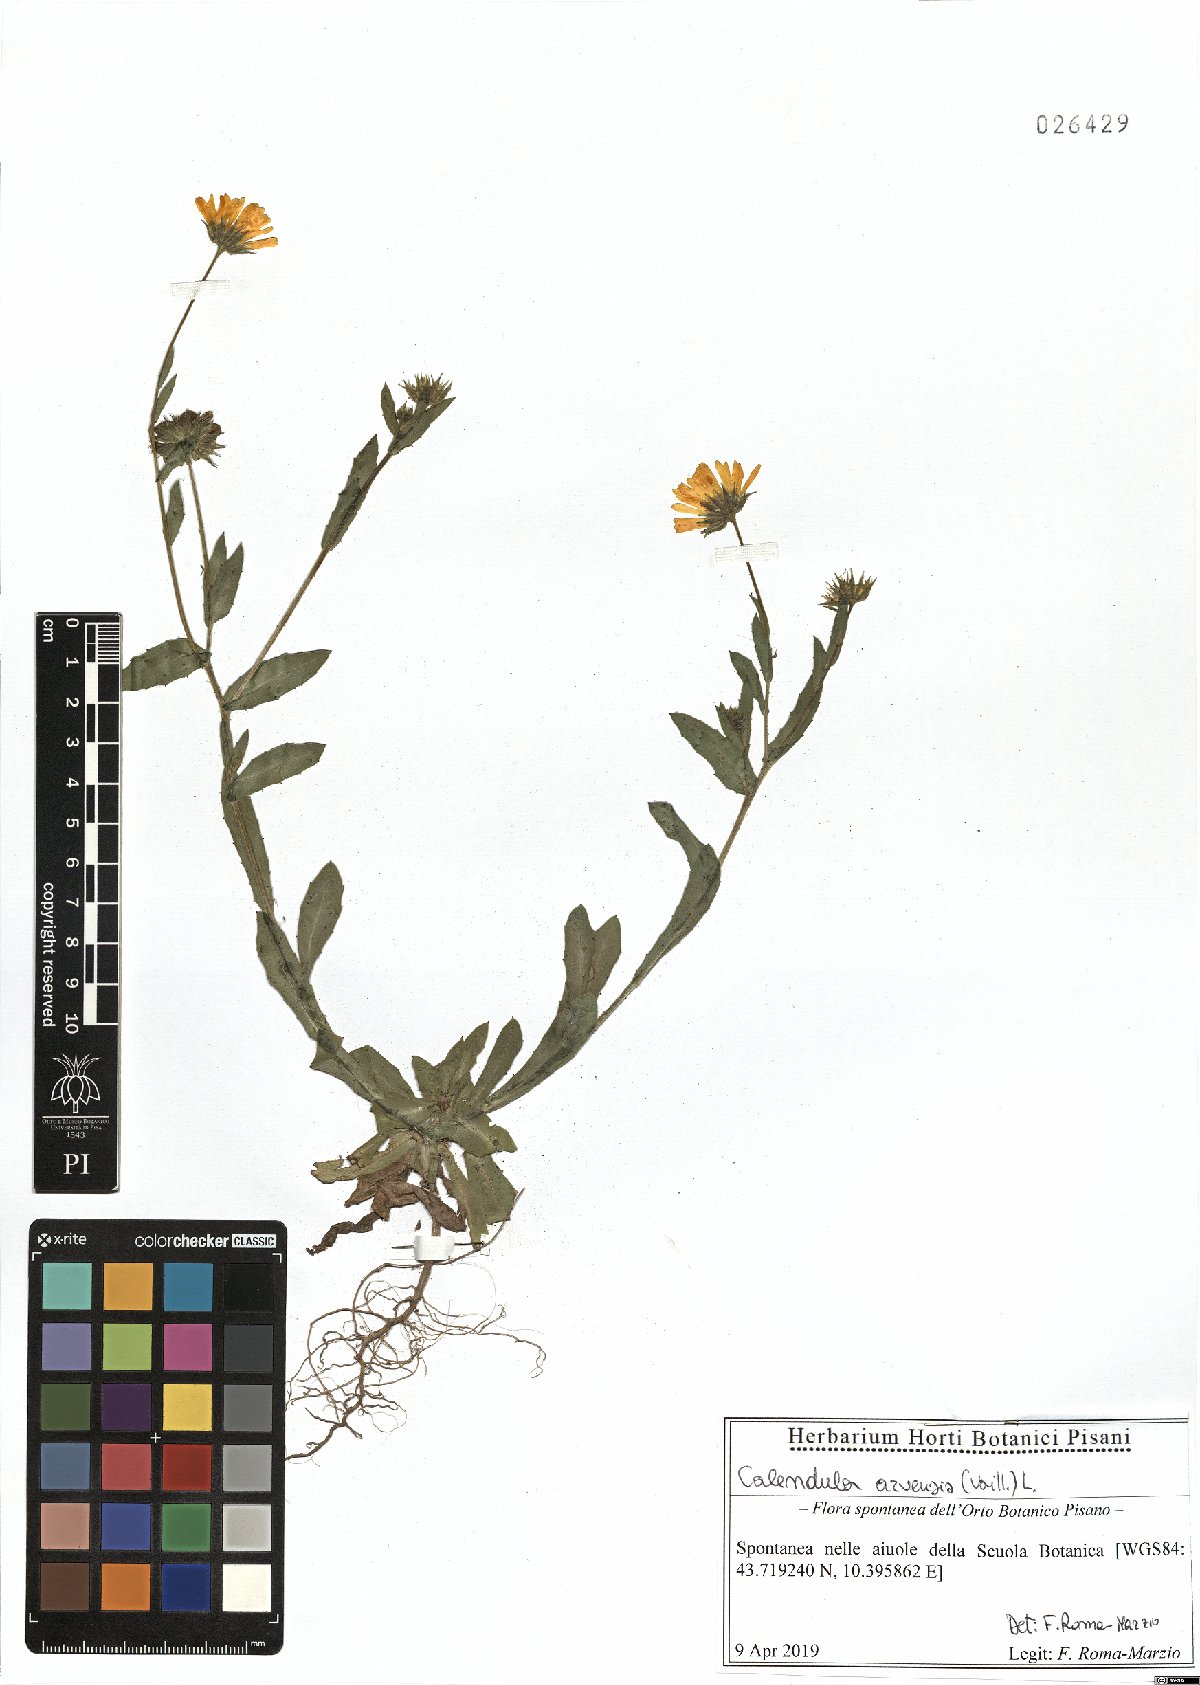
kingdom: Plantae
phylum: Tracheophyta
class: Magnoliopsida
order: Asterales
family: Asteraceae
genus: Calendula
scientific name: Calendula arvensis
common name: Field marigold
